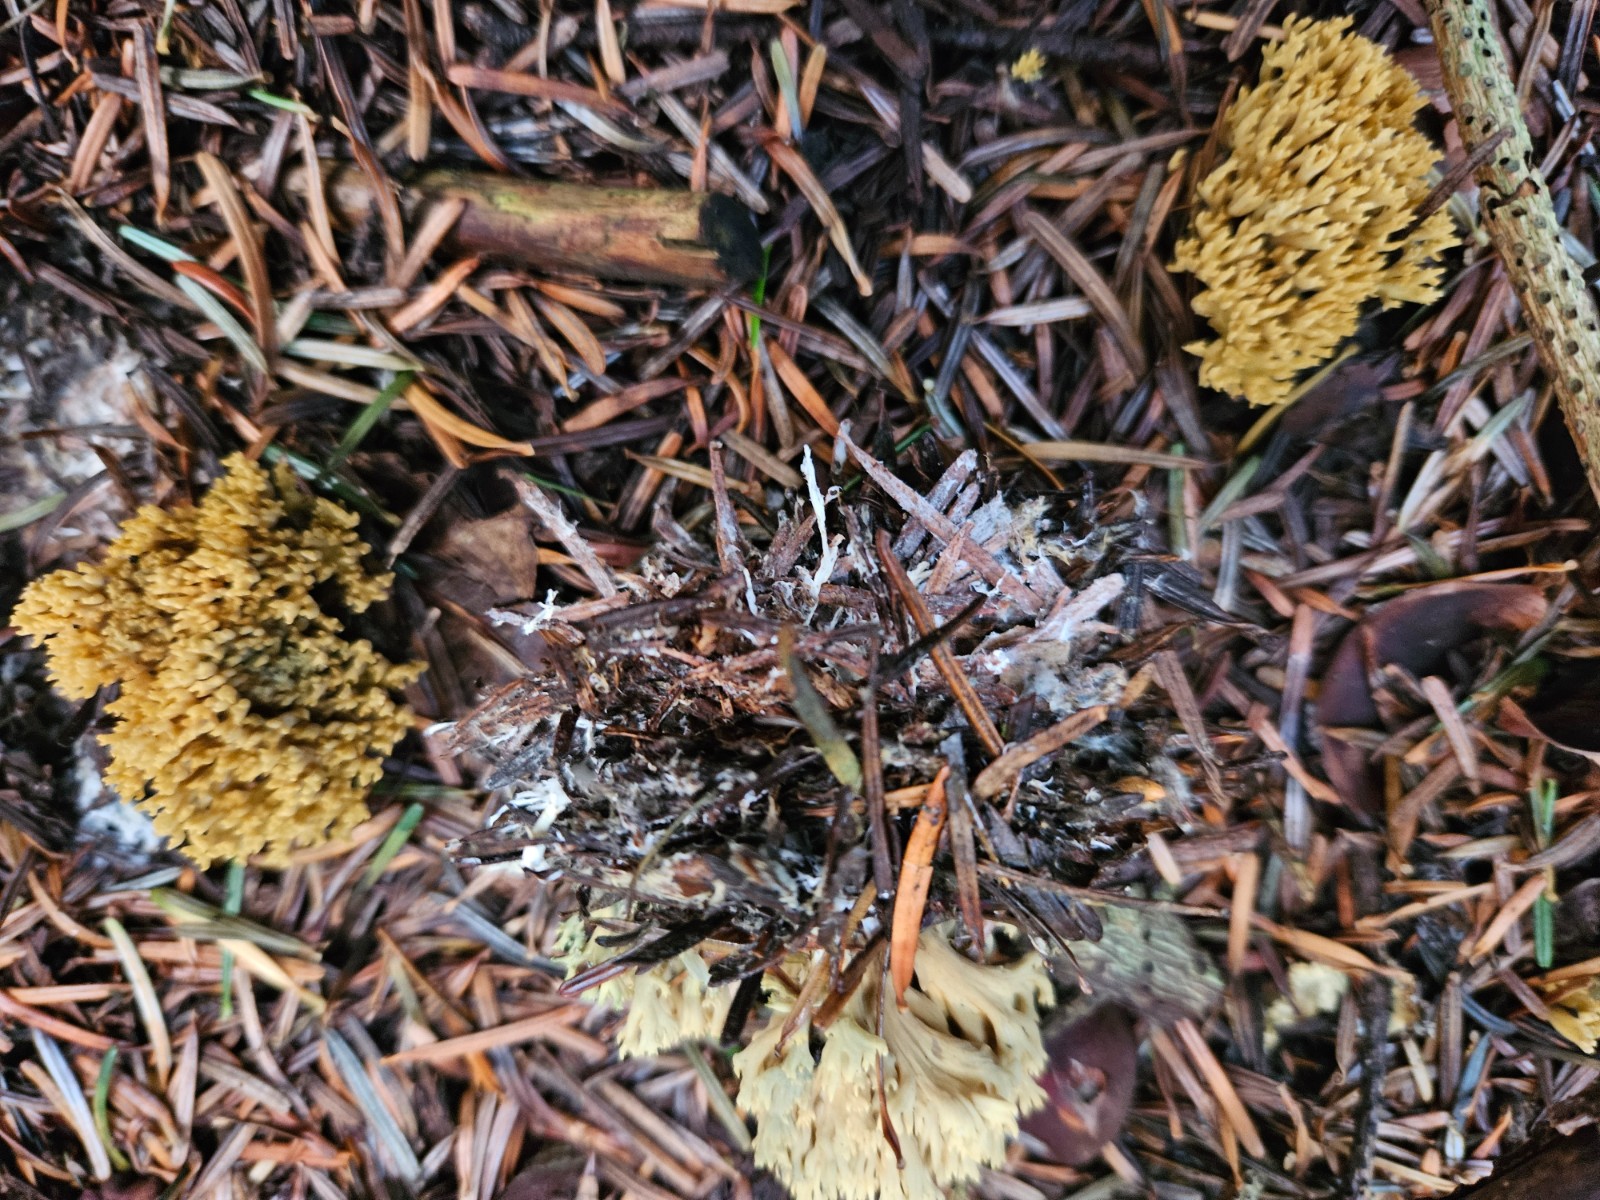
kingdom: Fungi
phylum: Basidiomycota
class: Agaricomycetes
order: Gomphales
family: Gomphaceae
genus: Phaeoclavulina
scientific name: Phaeoclavulina abietina
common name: gulgrøn koralsvamp
